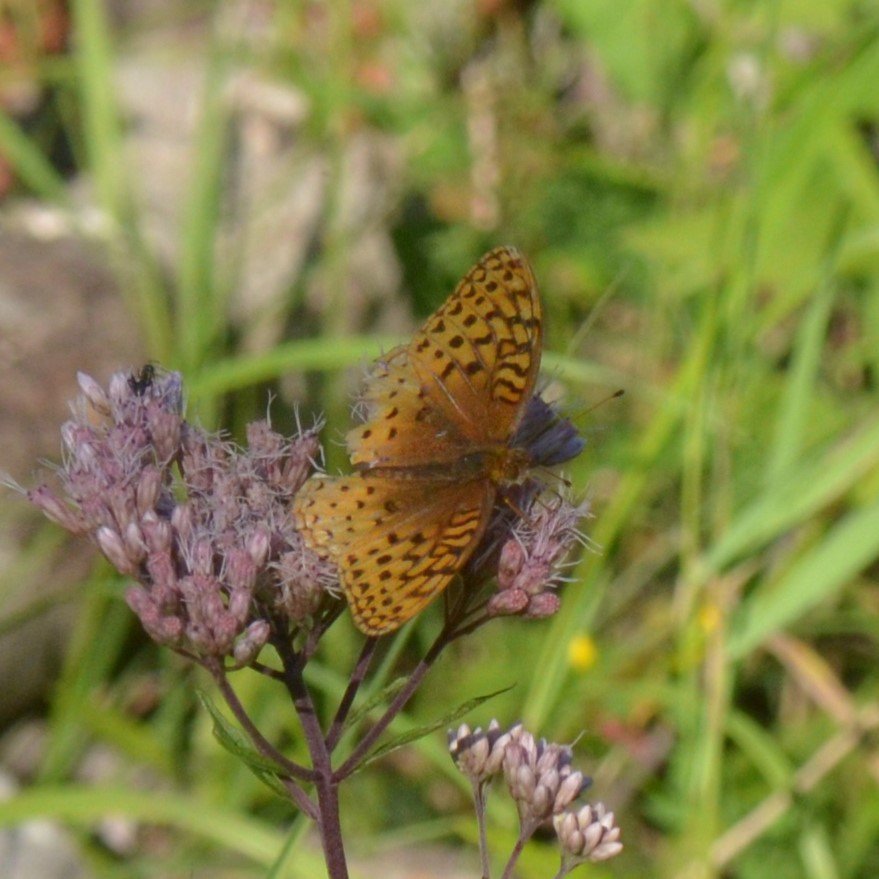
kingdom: Animalia
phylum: Arthropoda
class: Insecta
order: Lepidoptera
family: Nymphalidae
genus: Speyeria
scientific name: Speyeria cybele
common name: Great Spangled Fritillary
